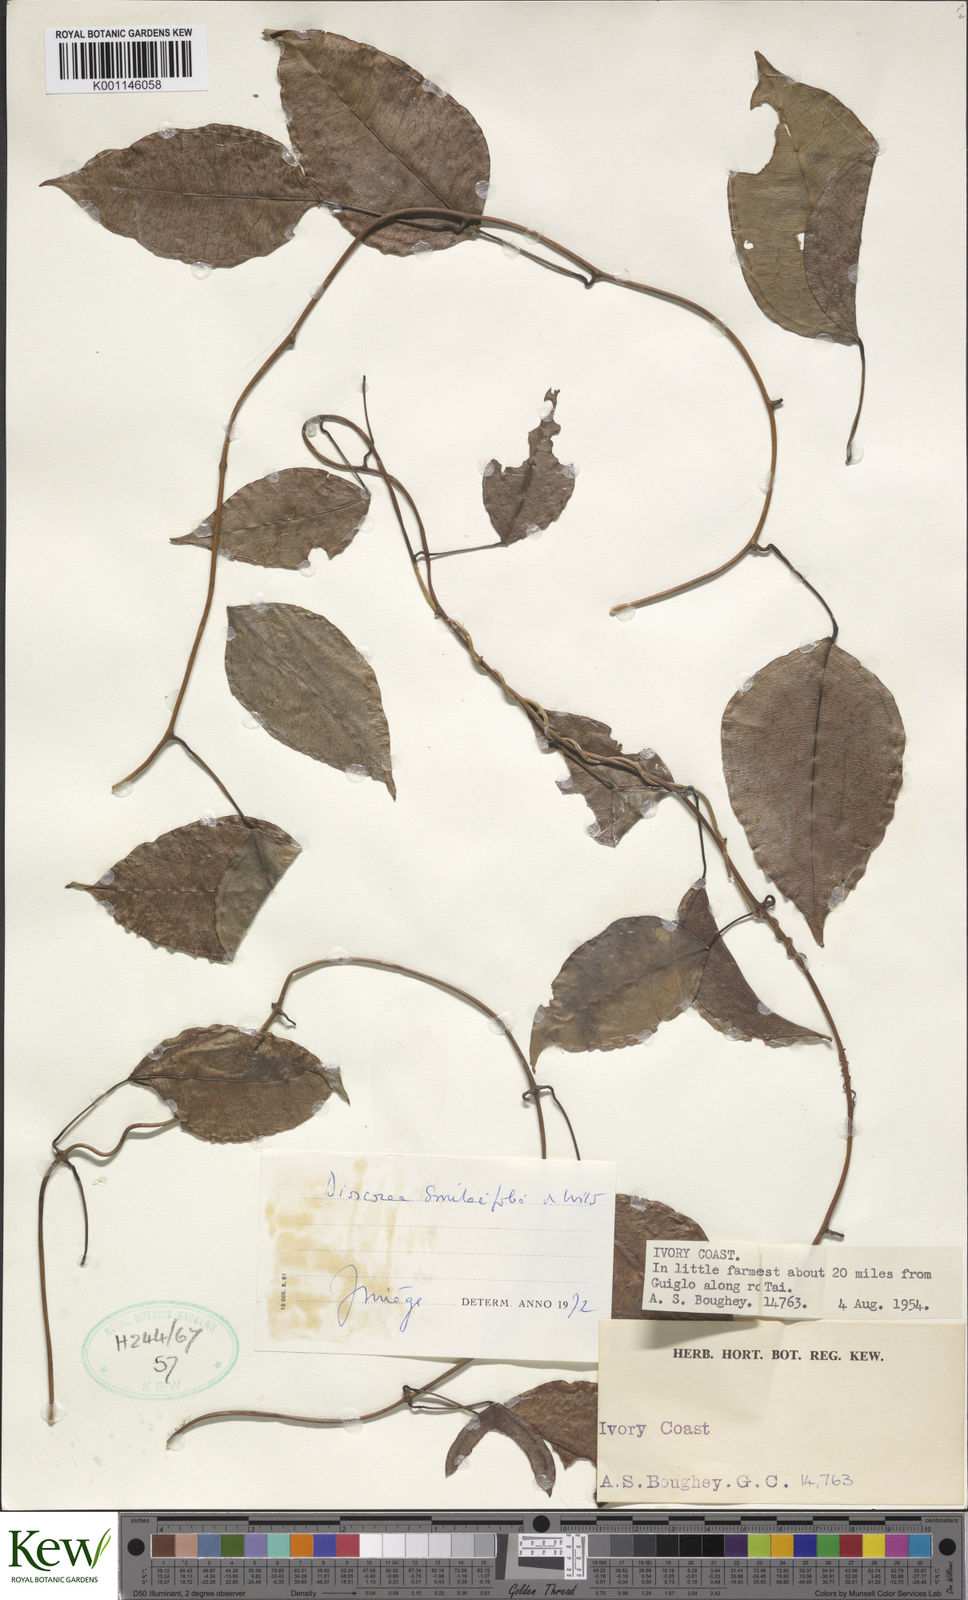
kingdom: Plantae
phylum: Tracheophyta
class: Liliopsida
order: Dioscoreales
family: Dioscoreaceae
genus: Dioscorea
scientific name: Dioscorea smilacifolia
